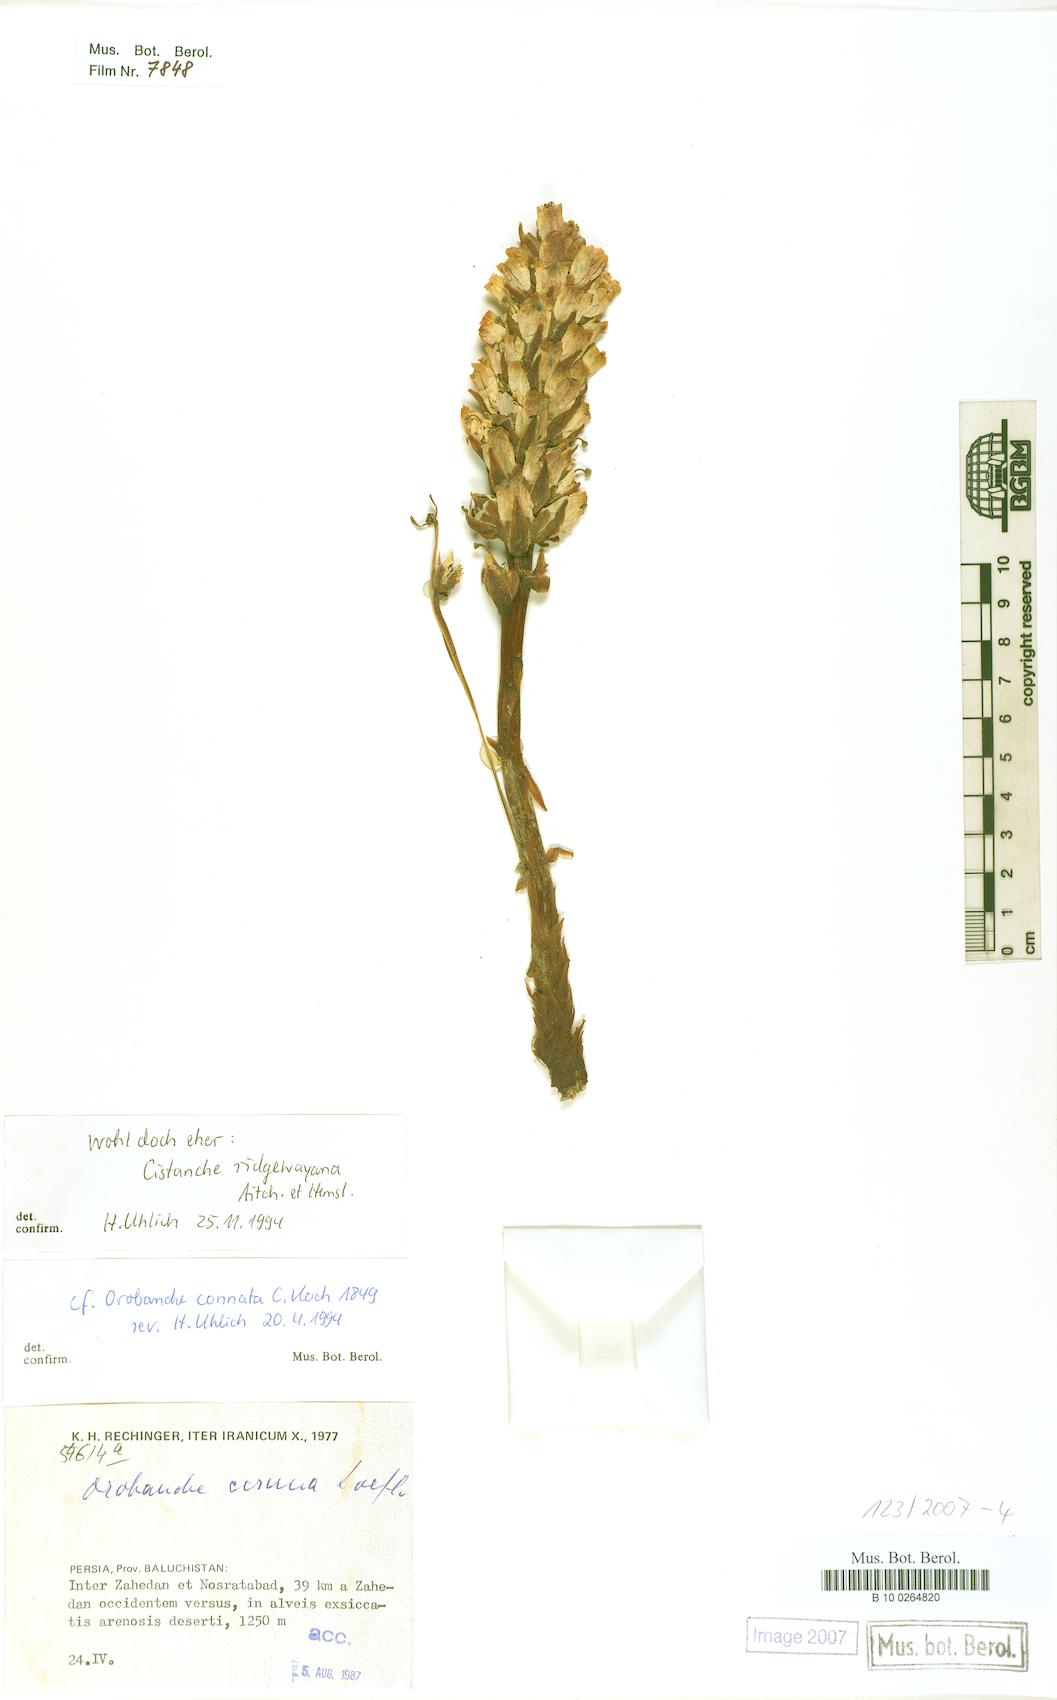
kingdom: Plantae
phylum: Tracheophyta
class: Magnoliopsida
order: Lamiales
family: Orobanchaceae
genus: Cistanche
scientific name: Cistanche persica
